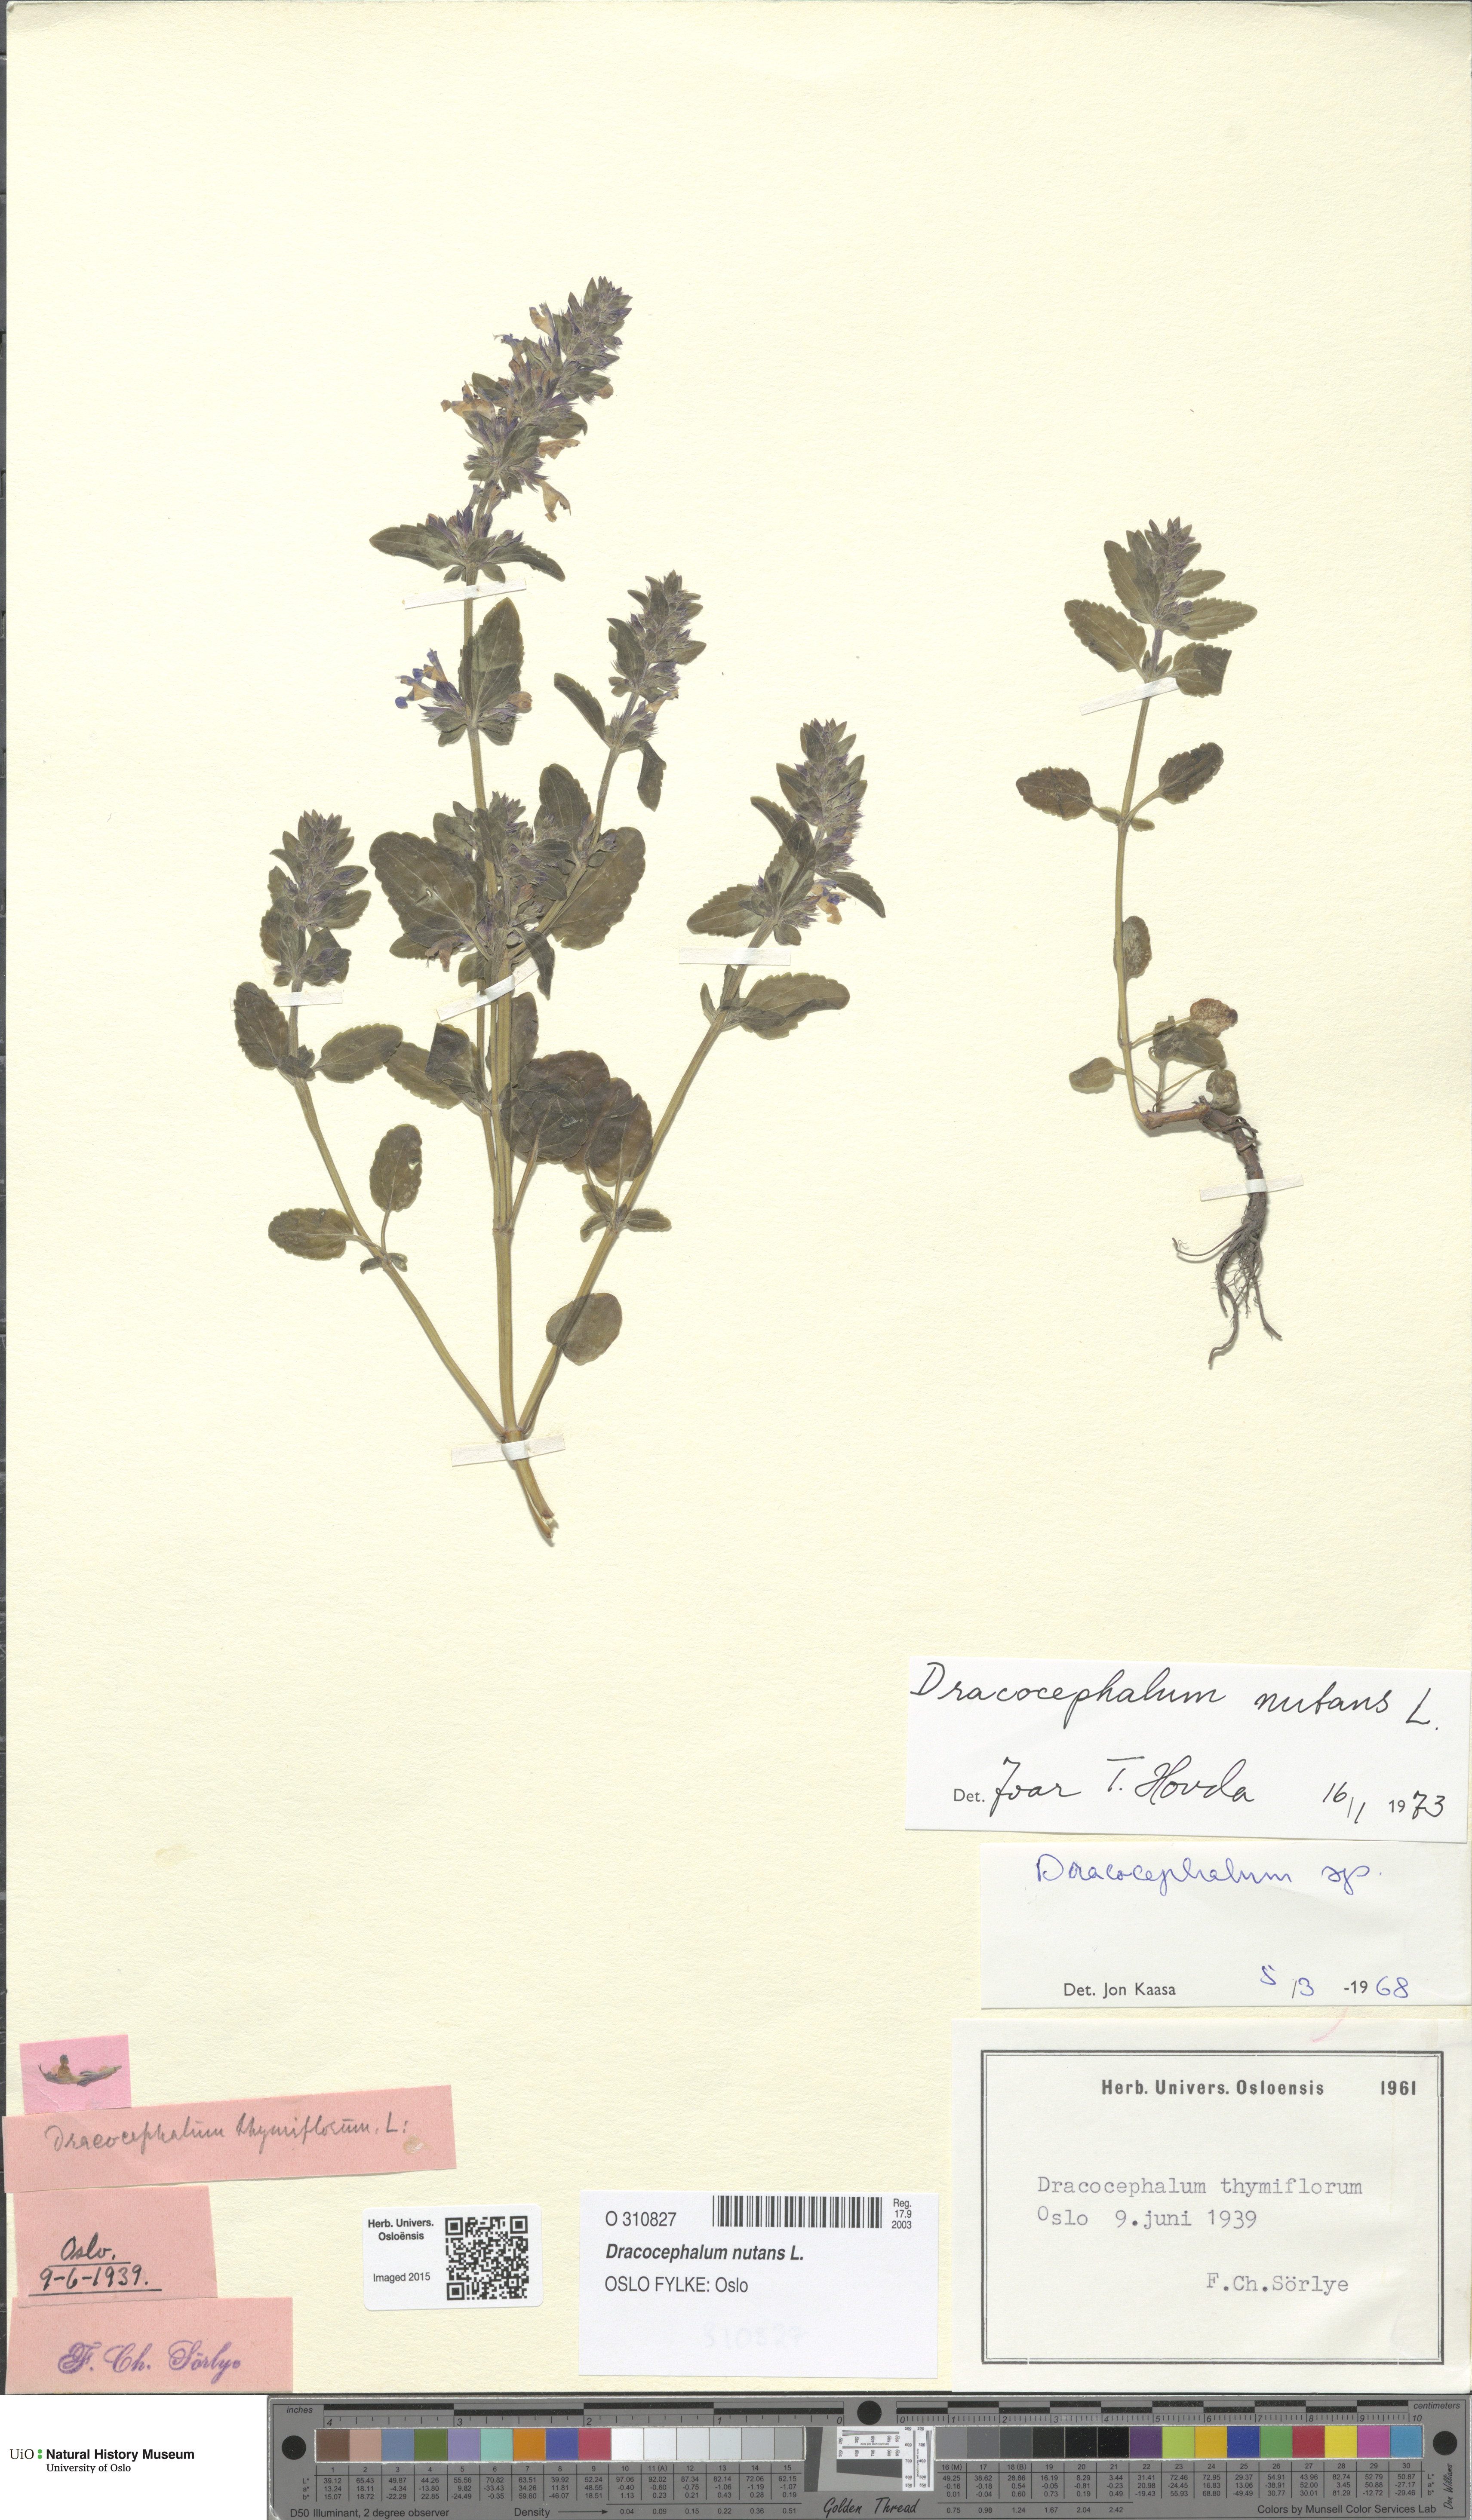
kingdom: Plantae
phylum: Tracheophyta
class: Magnoliopsida
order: Lamiales
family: Lamiaceae
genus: Dracocephalum
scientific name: Dracocephalum nutans
